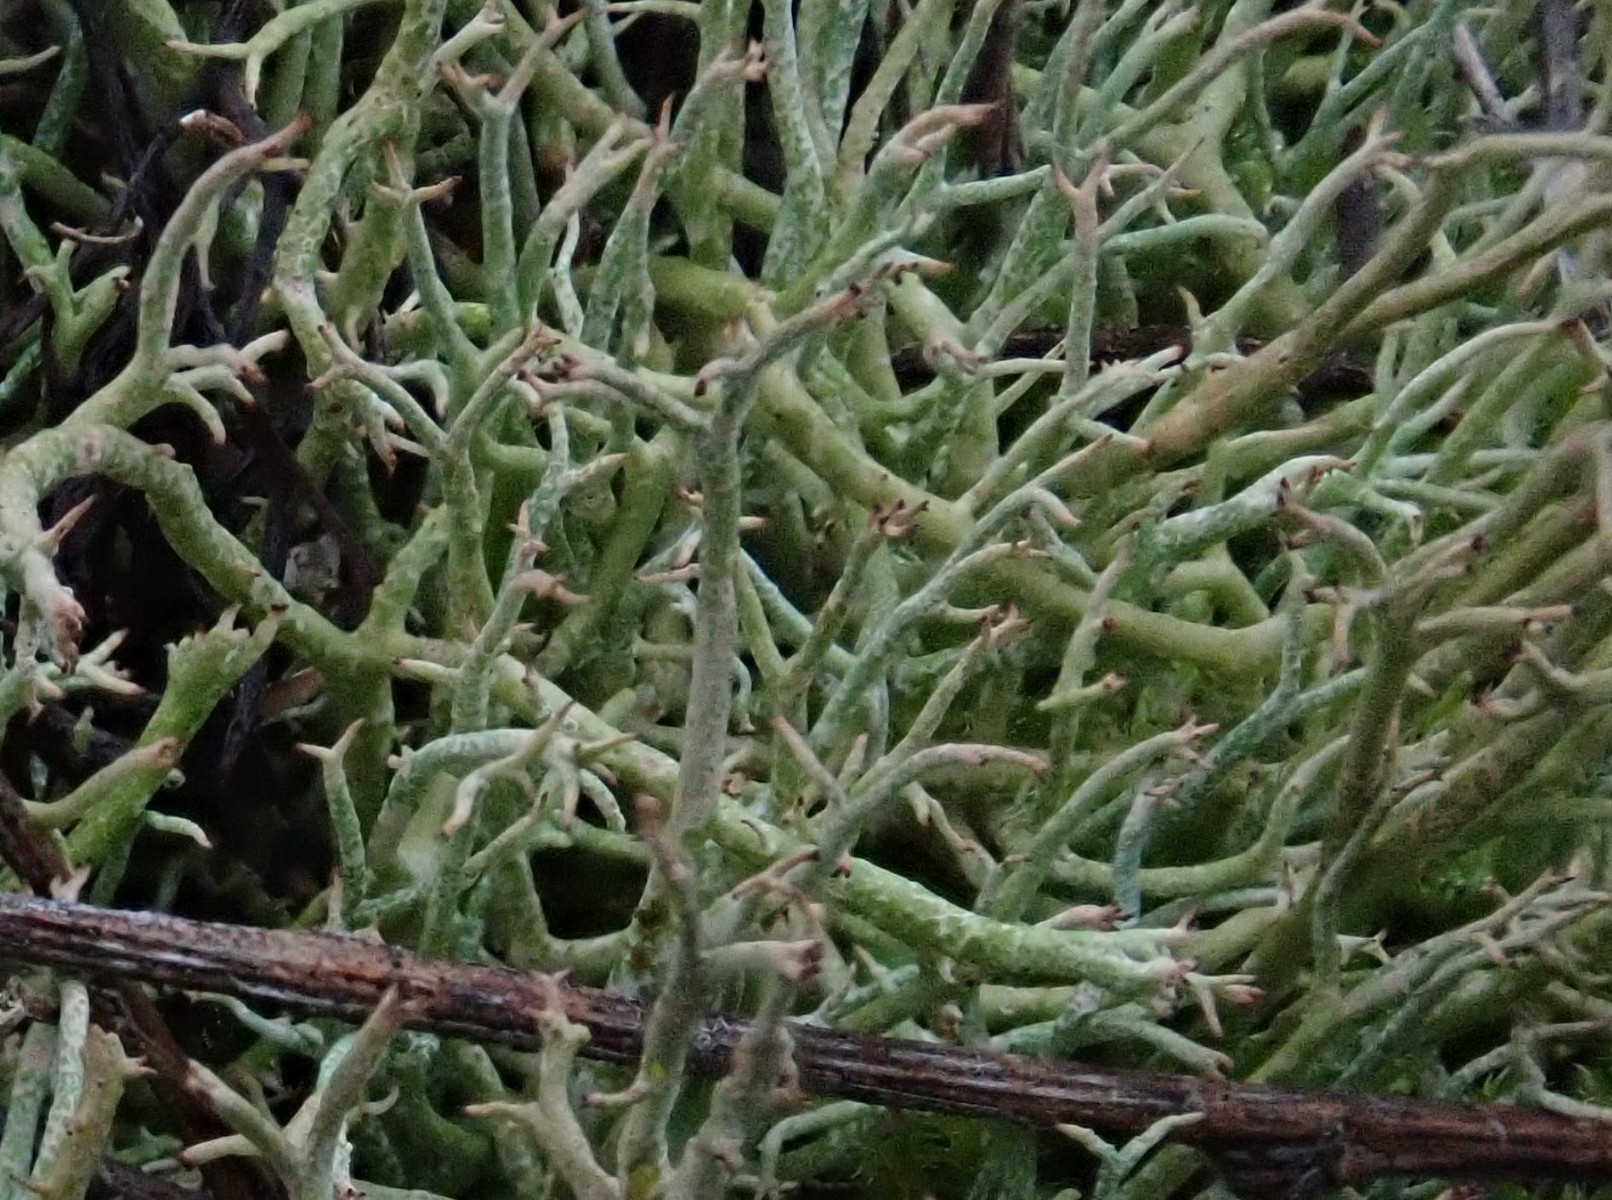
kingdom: Fungi
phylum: Ascomycota
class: Lecanoromycetes
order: Lecanorales
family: Cladoniaceae
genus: Cladonia
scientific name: Cladonia rangiformis
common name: spættet bægerlav
